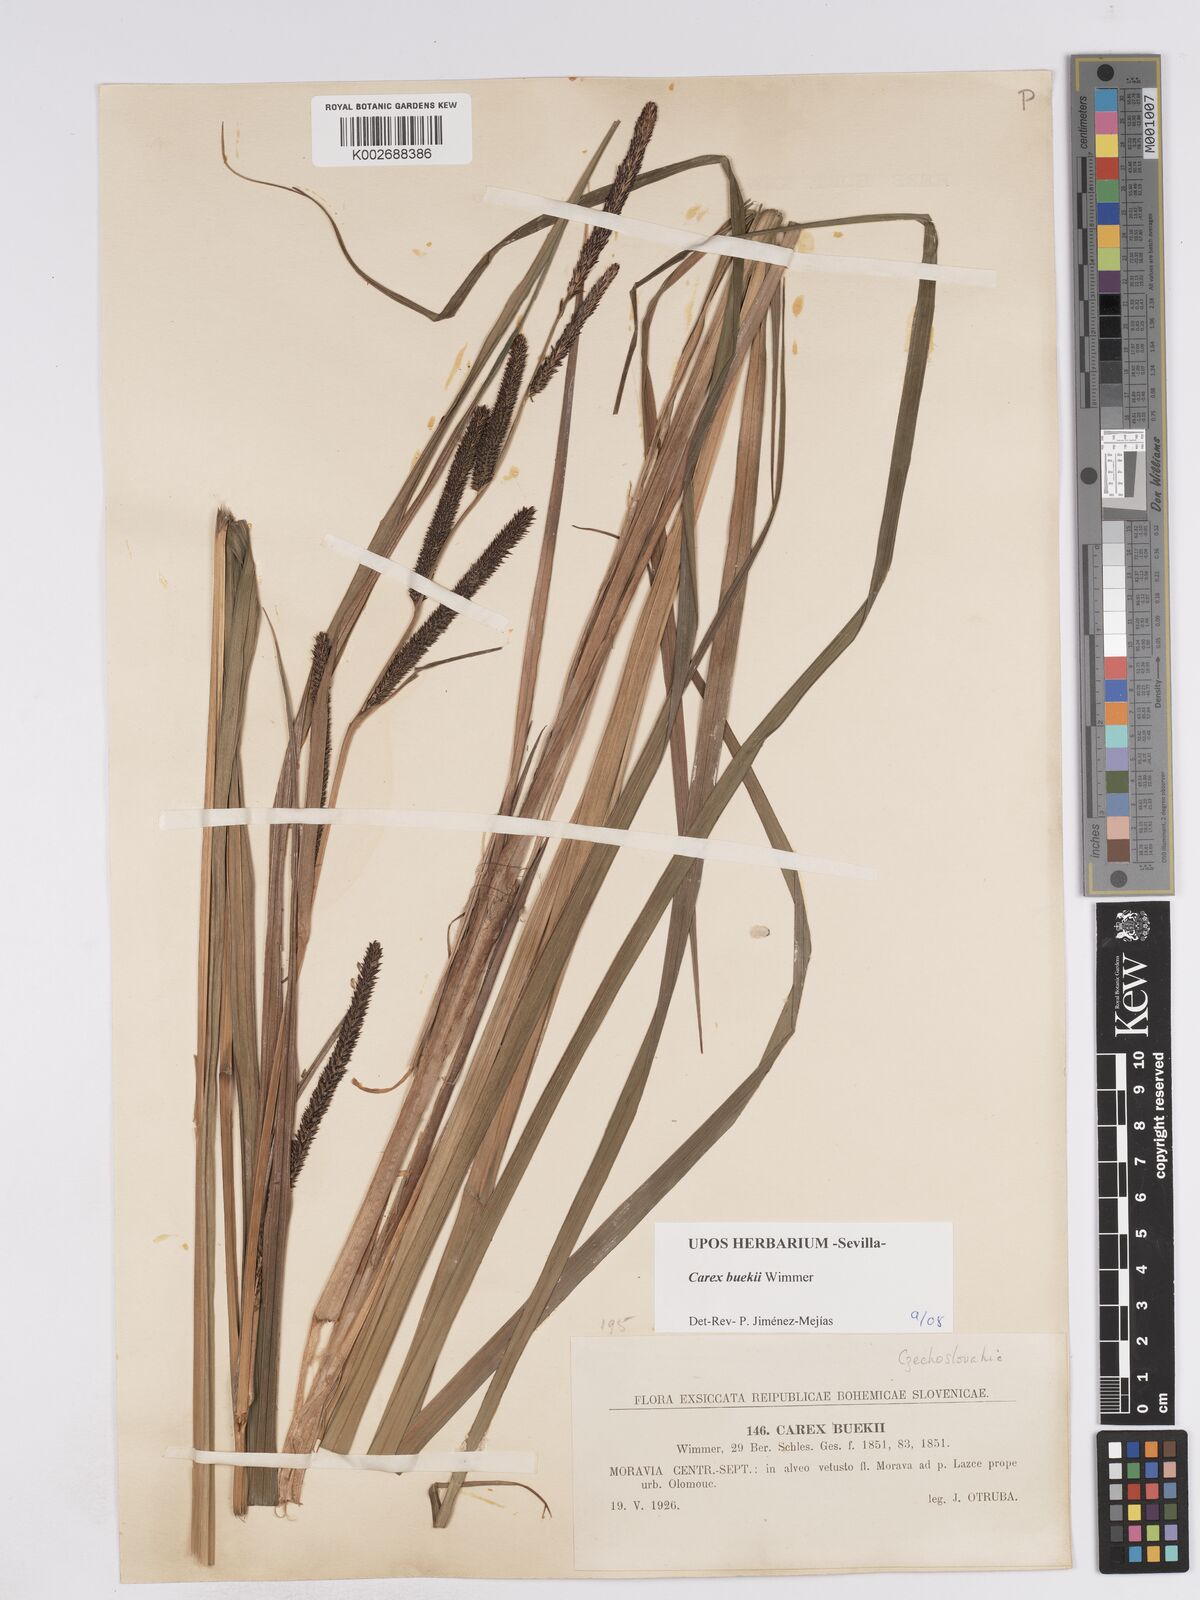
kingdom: Plantae
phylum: Tracheophyta
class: Liliopsida
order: Poales
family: Cyperaceae
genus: Carex
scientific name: Carex buekii
